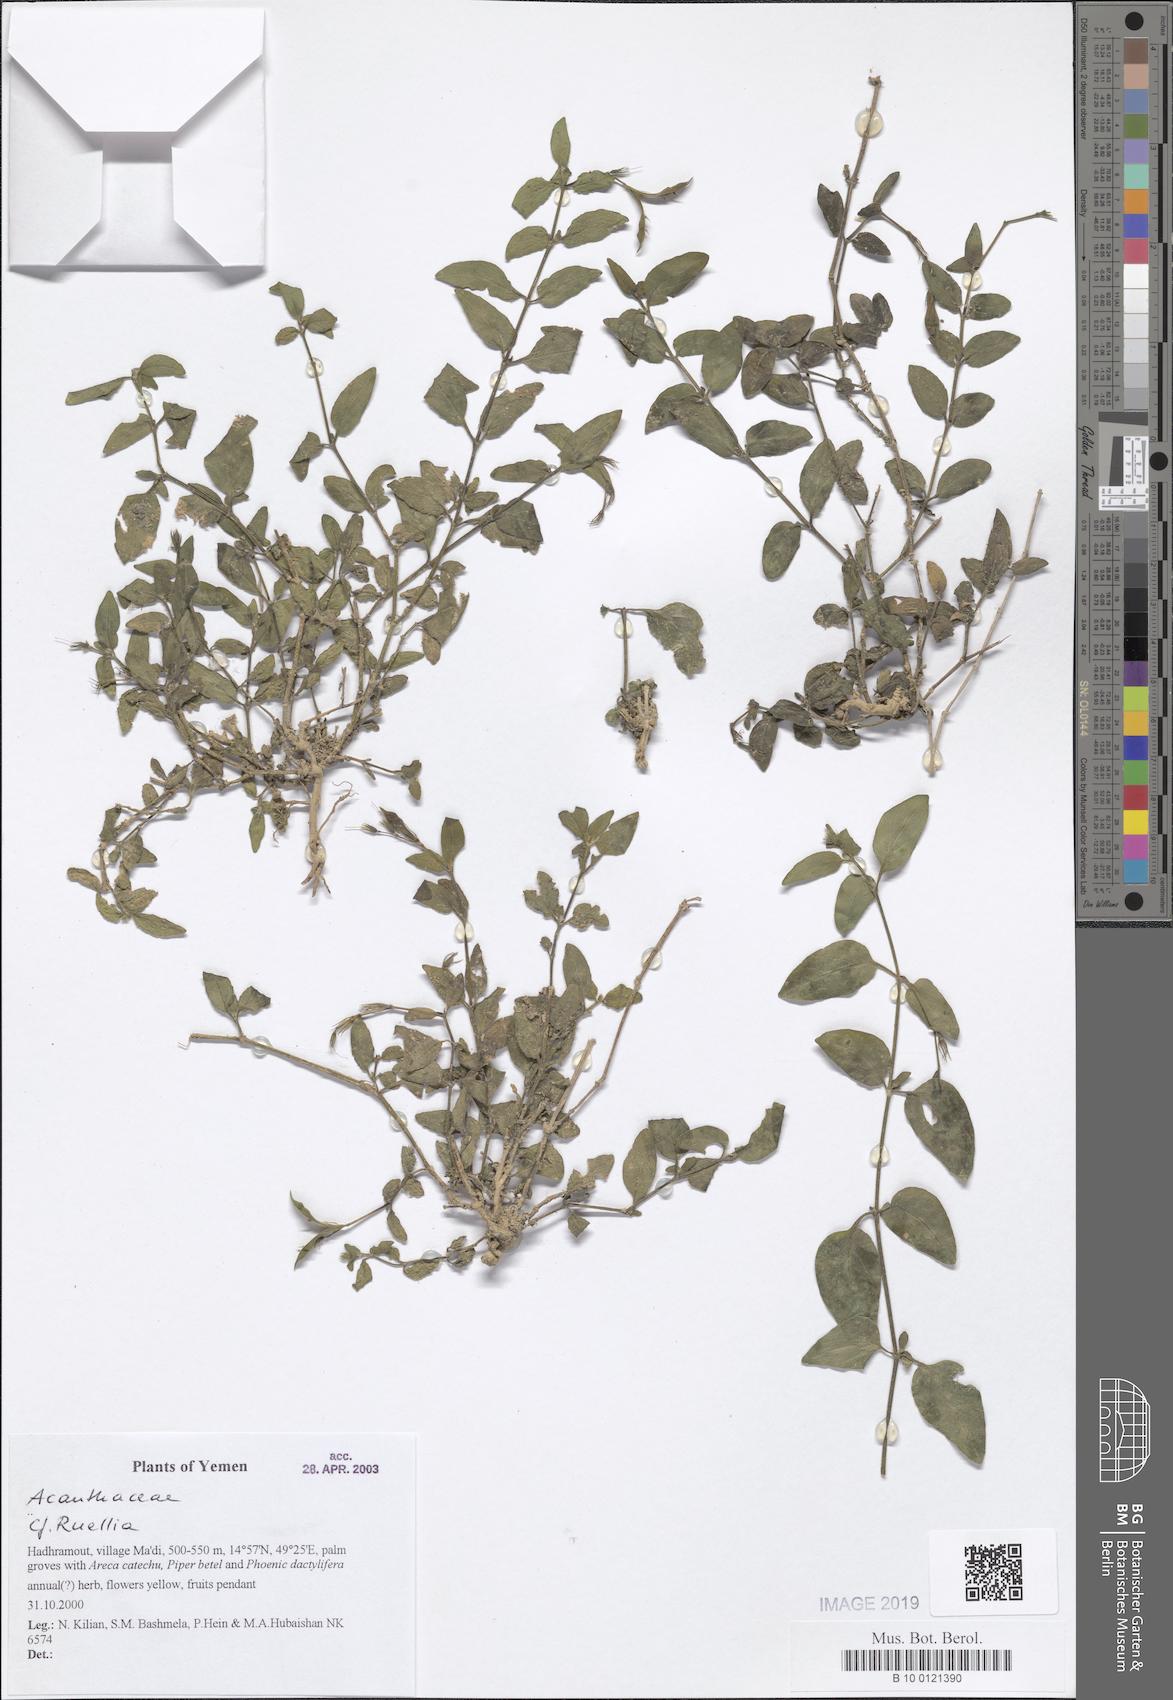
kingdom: Plantae
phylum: Tracheophyta
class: Magnoliopsida
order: Lamiales
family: Acanthaceae
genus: Ruellia
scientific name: Ruellia
